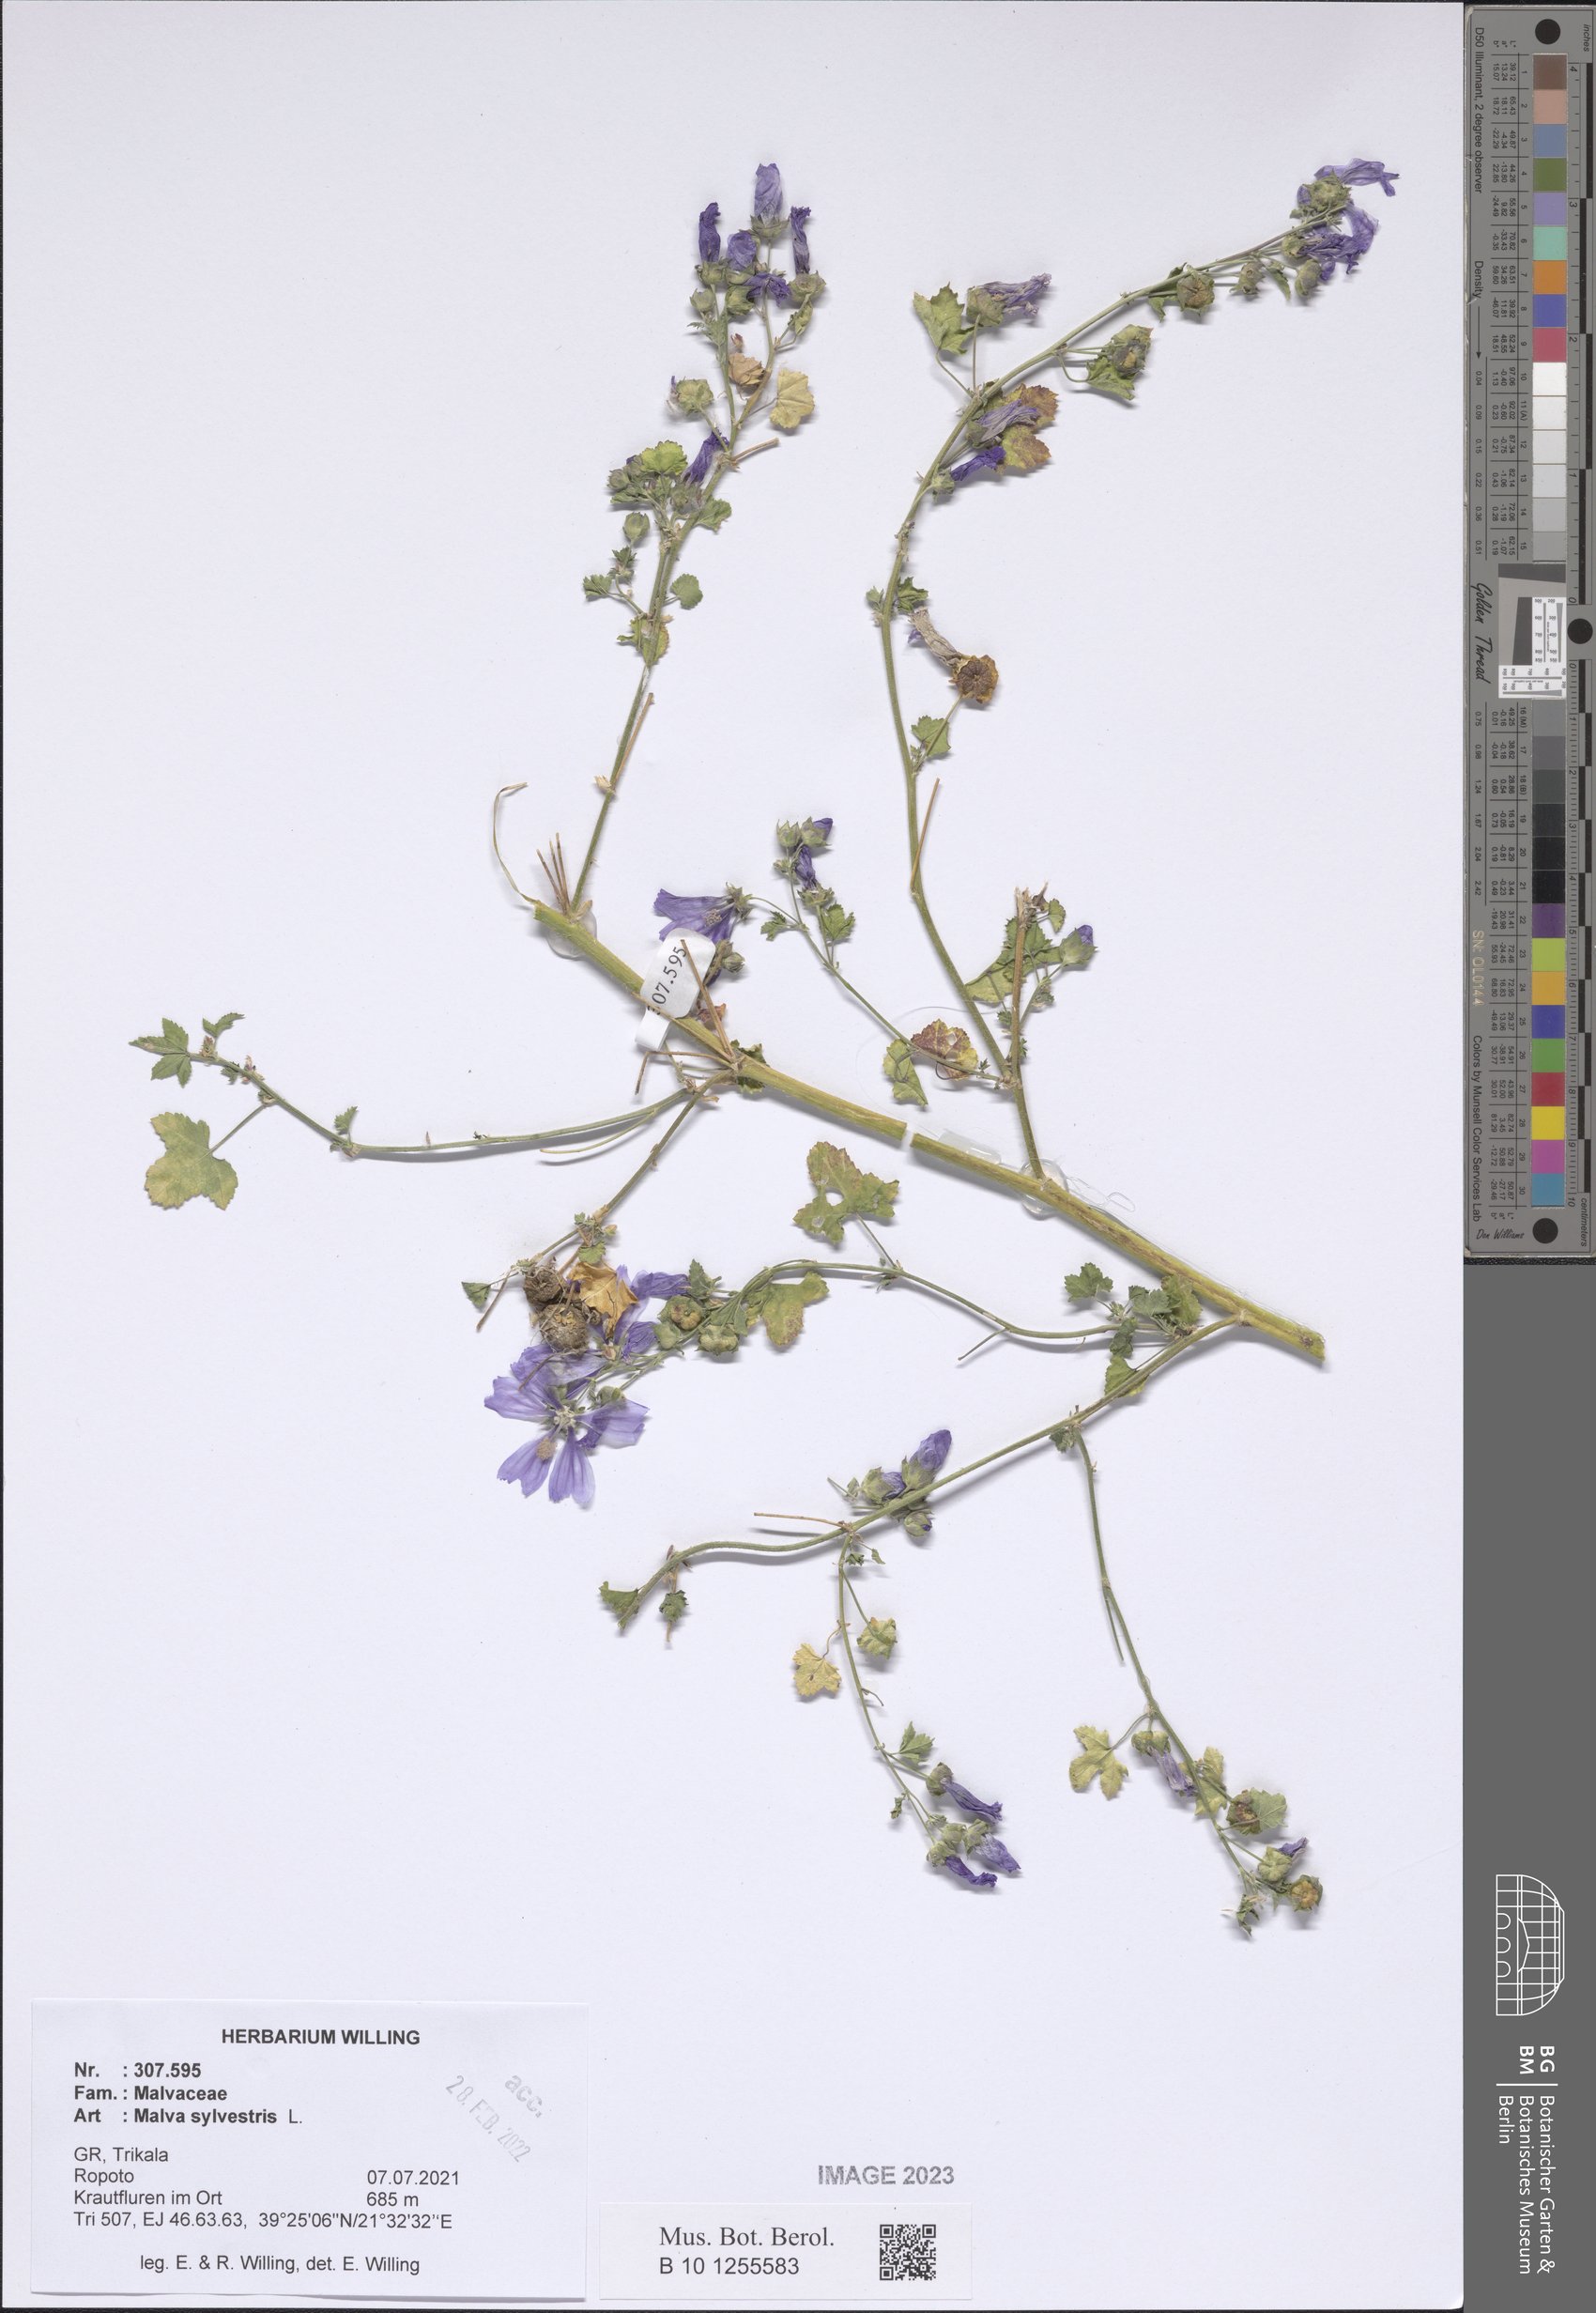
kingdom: Plantae
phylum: Tracheophyta
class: Magnoliopsida
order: Malvales
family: Malvaceae
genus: Malva
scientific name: Malva sylvestris
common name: Common mallow
